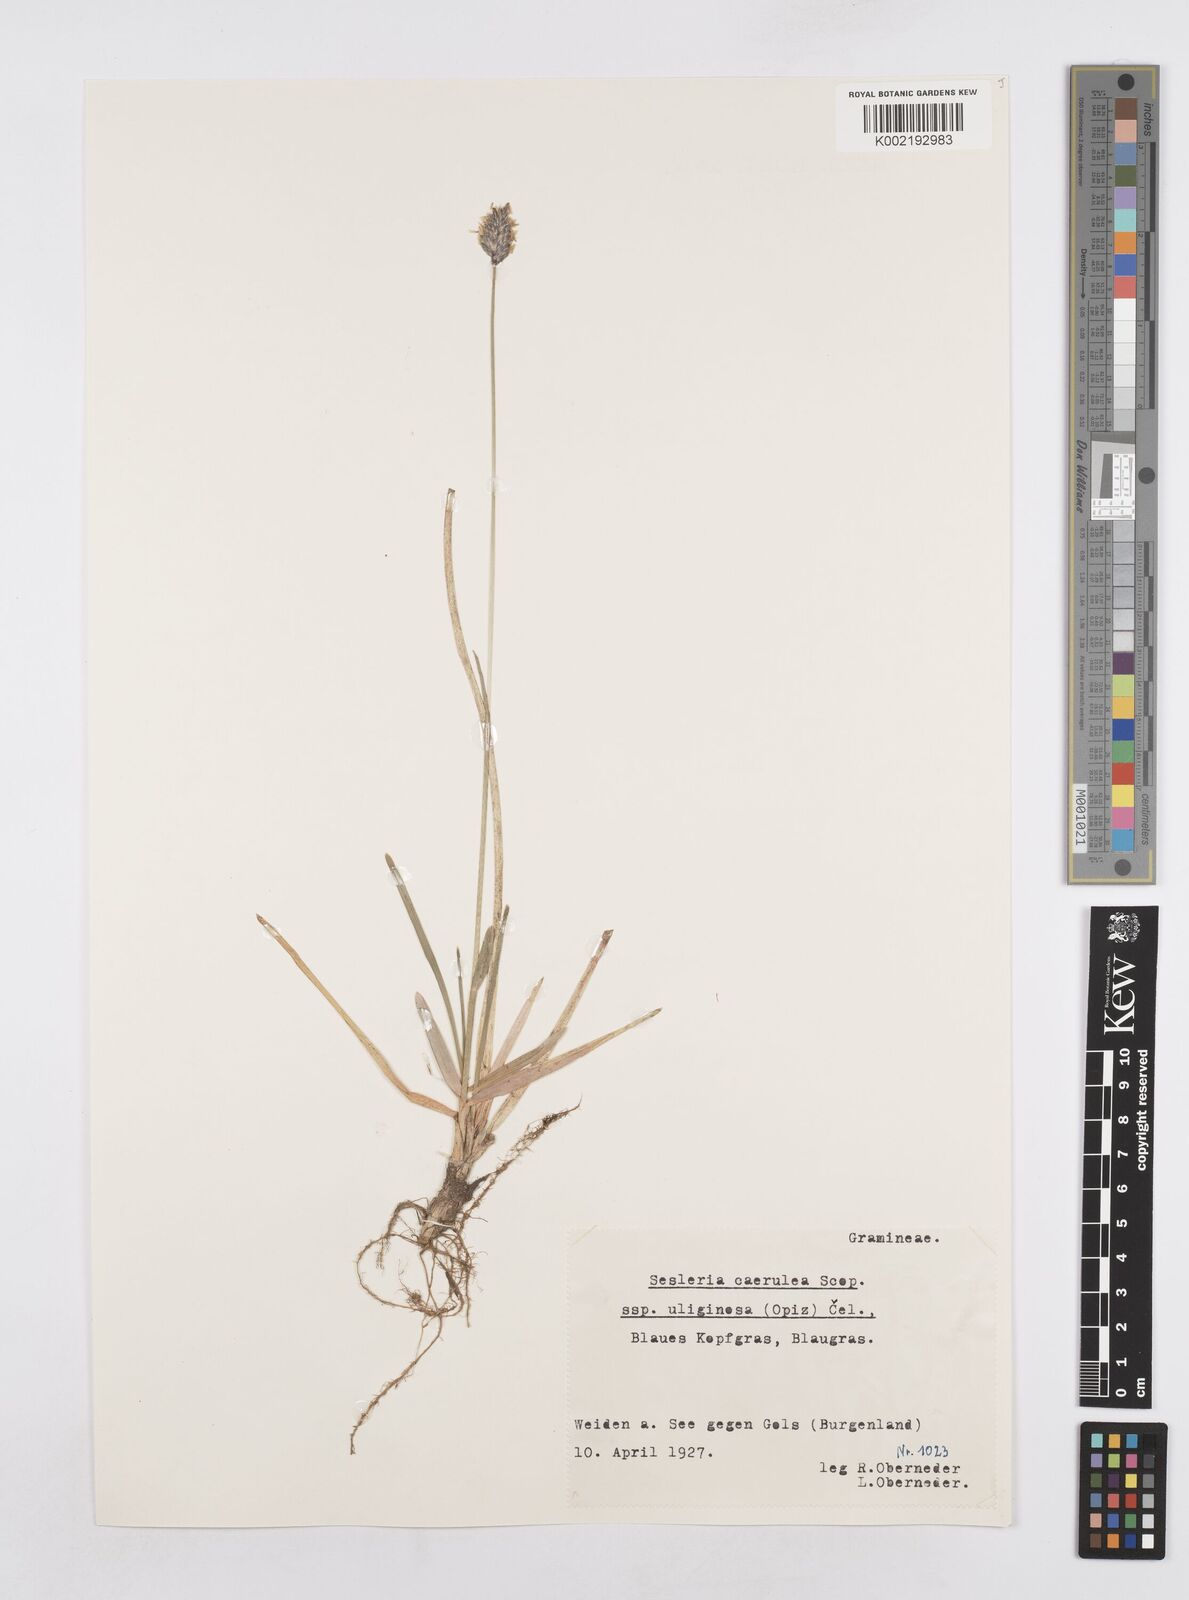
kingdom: Plantae
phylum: Tracheophyta
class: Liliopsida
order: Poales
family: Poaceae
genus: Sesleria
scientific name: Sesleria caerulea
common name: Blue moor-grass
